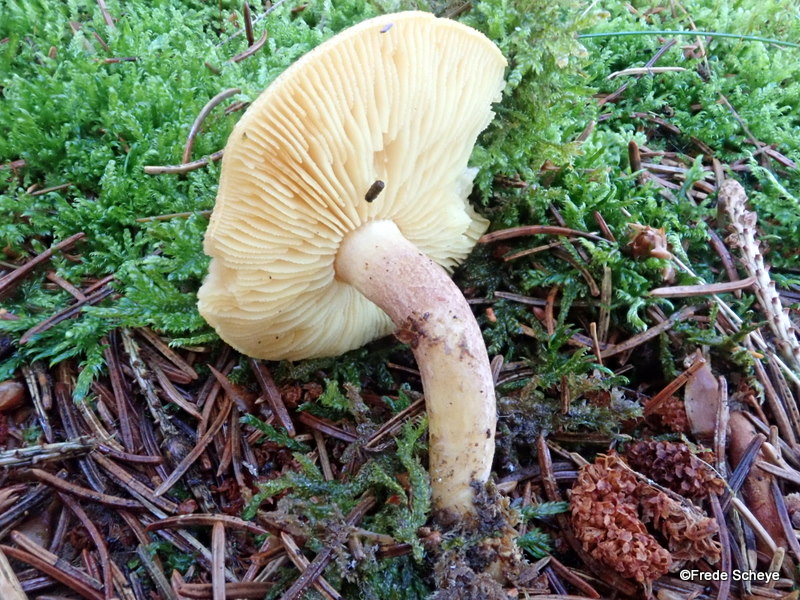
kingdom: Fungi
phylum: Basidiomycota
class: Agaricomycetes
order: Agaricales
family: Tricholomataceae
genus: Tricholomopsis
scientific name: Tricholomopsis rutilans
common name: purpur-væbnerhat
